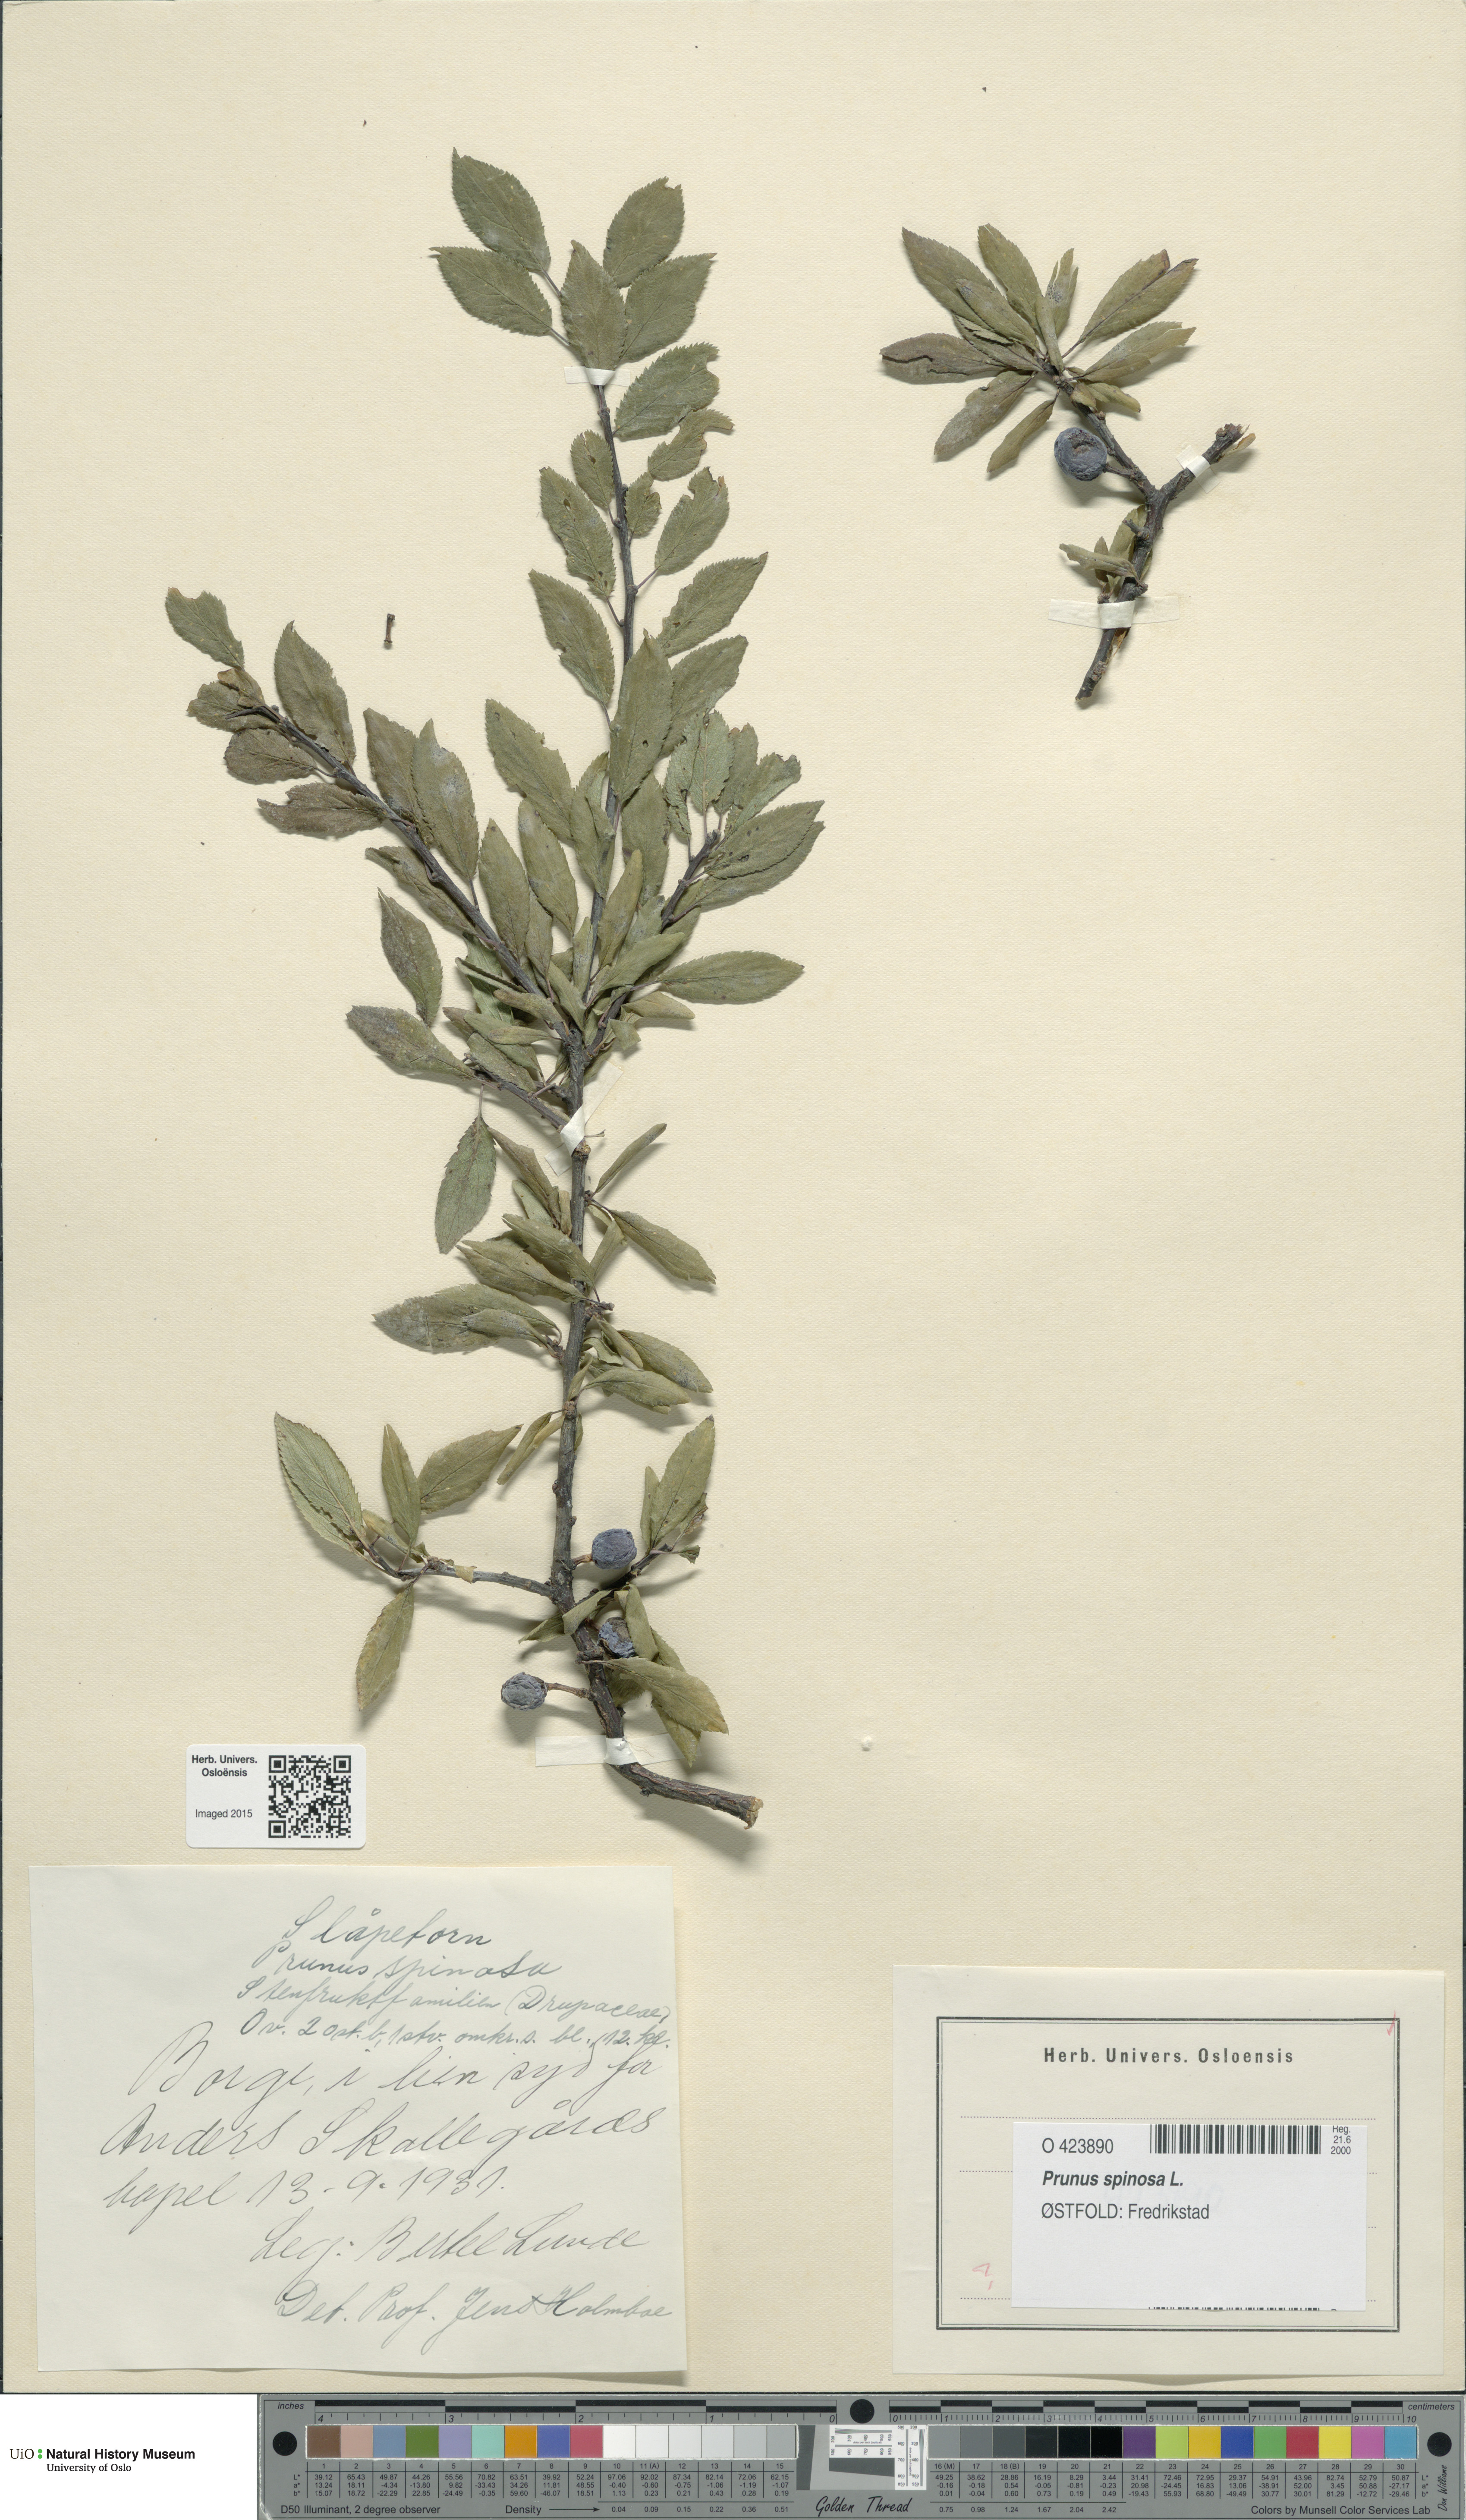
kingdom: Plantae
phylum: Tracheophyta
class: Magnoliopsida
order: Rosales
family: Rosaceae
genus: Prunus
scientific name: Prunus spinosa
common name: Blackthorn
